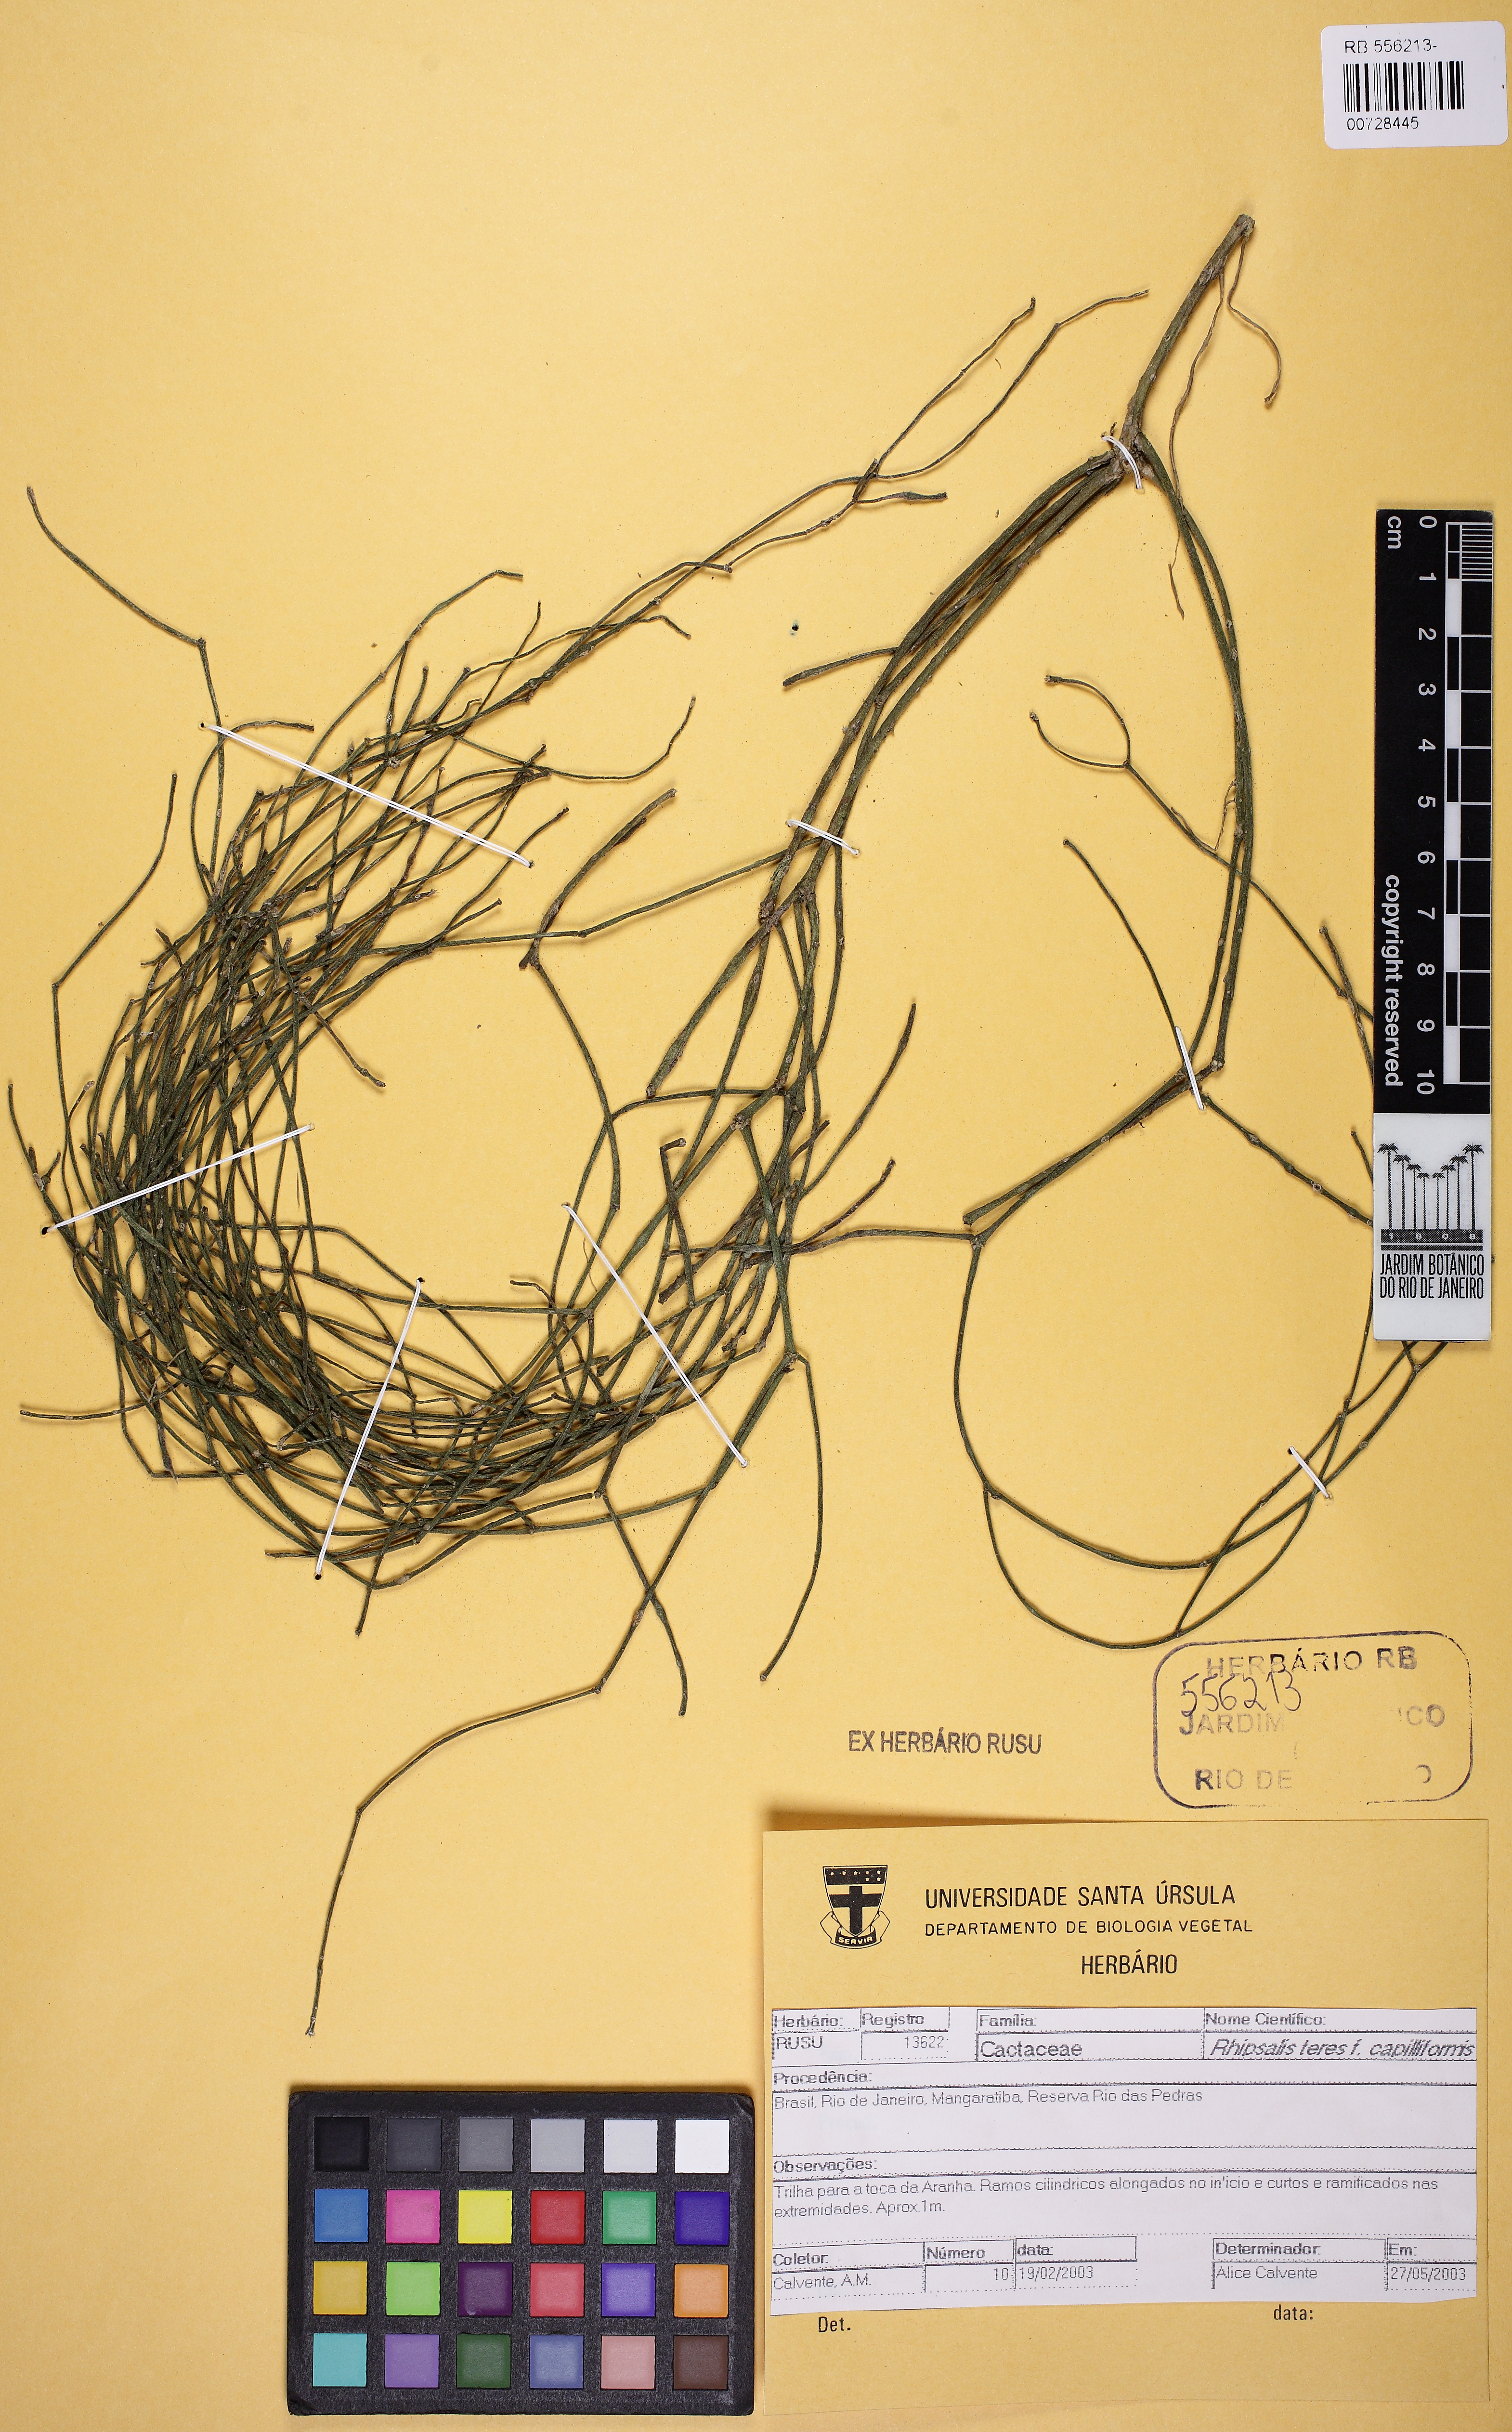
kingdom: Plantae
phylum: Tracheophyta
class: Magnoliopsida
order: Caryophyllales
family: Cactaceae
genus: Rhipsalis
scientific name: Rhipsalis teres
